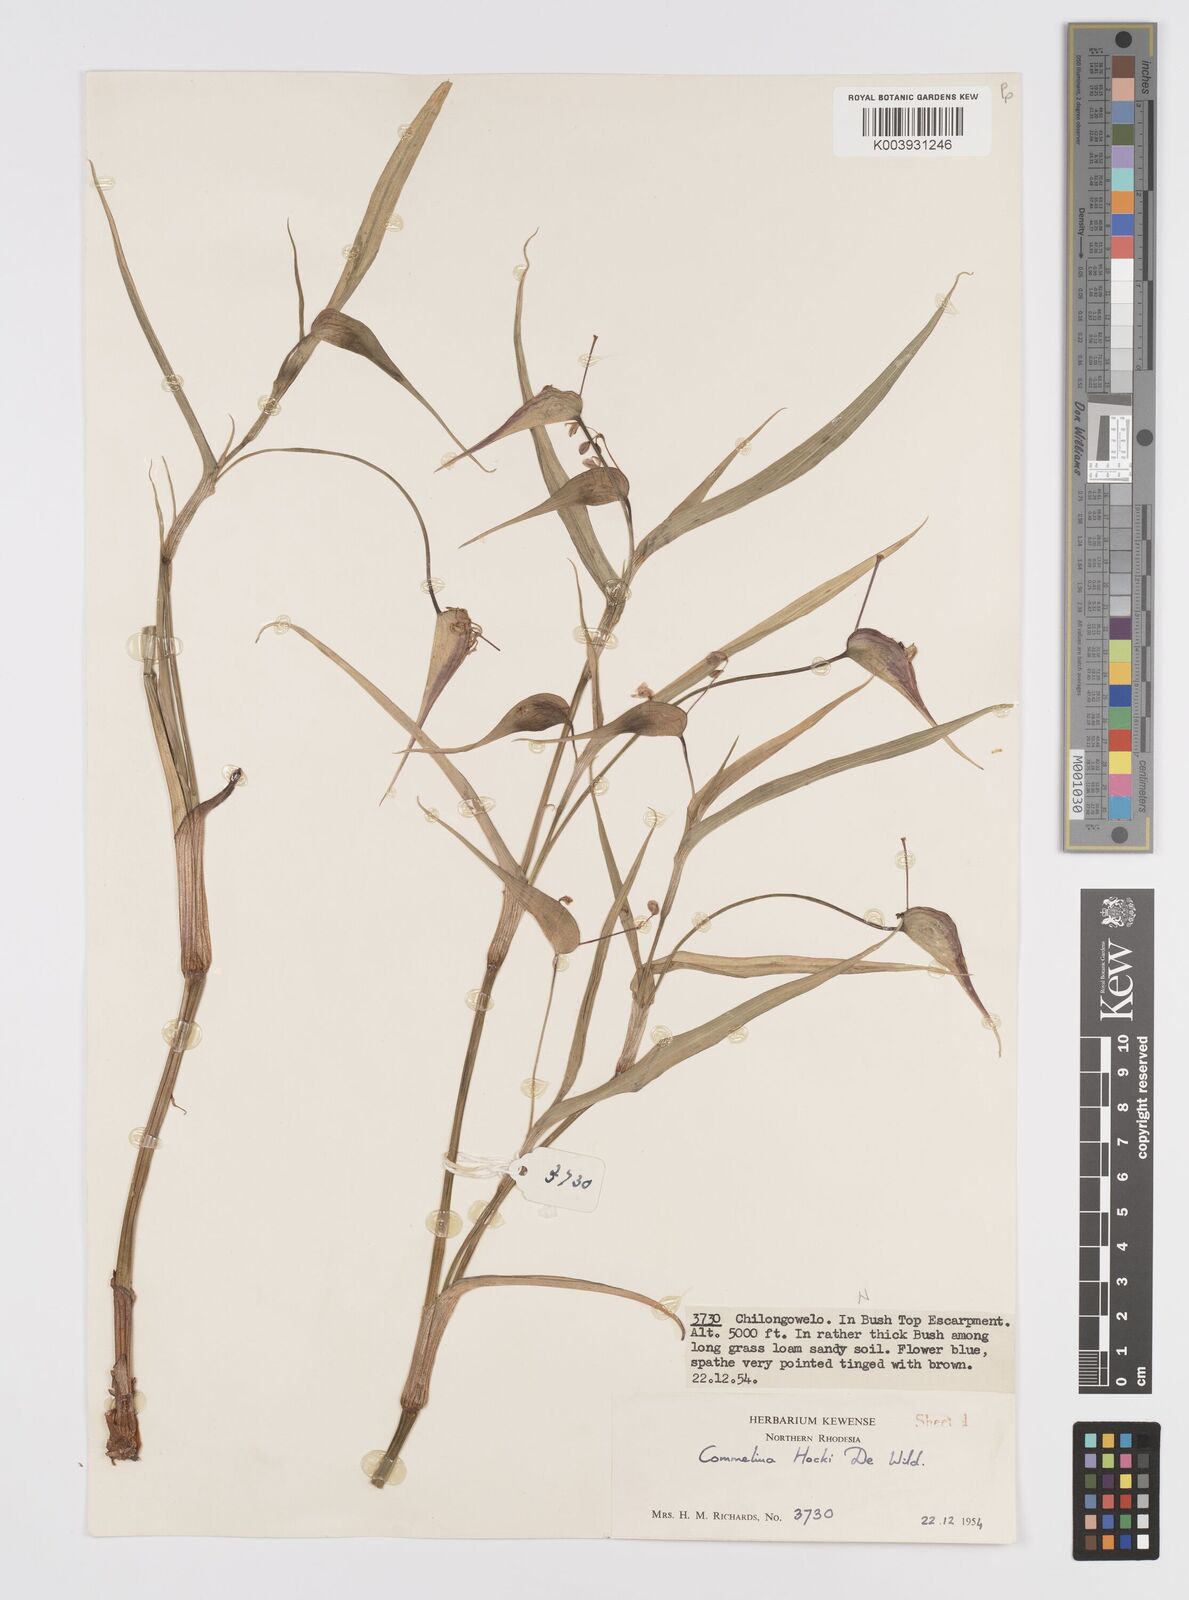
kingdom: Plantae
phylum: Tracheophyta
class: Liliopsida
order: Commelinales
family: Commelinaceae
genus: Commelina
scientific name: Commelina hockii
